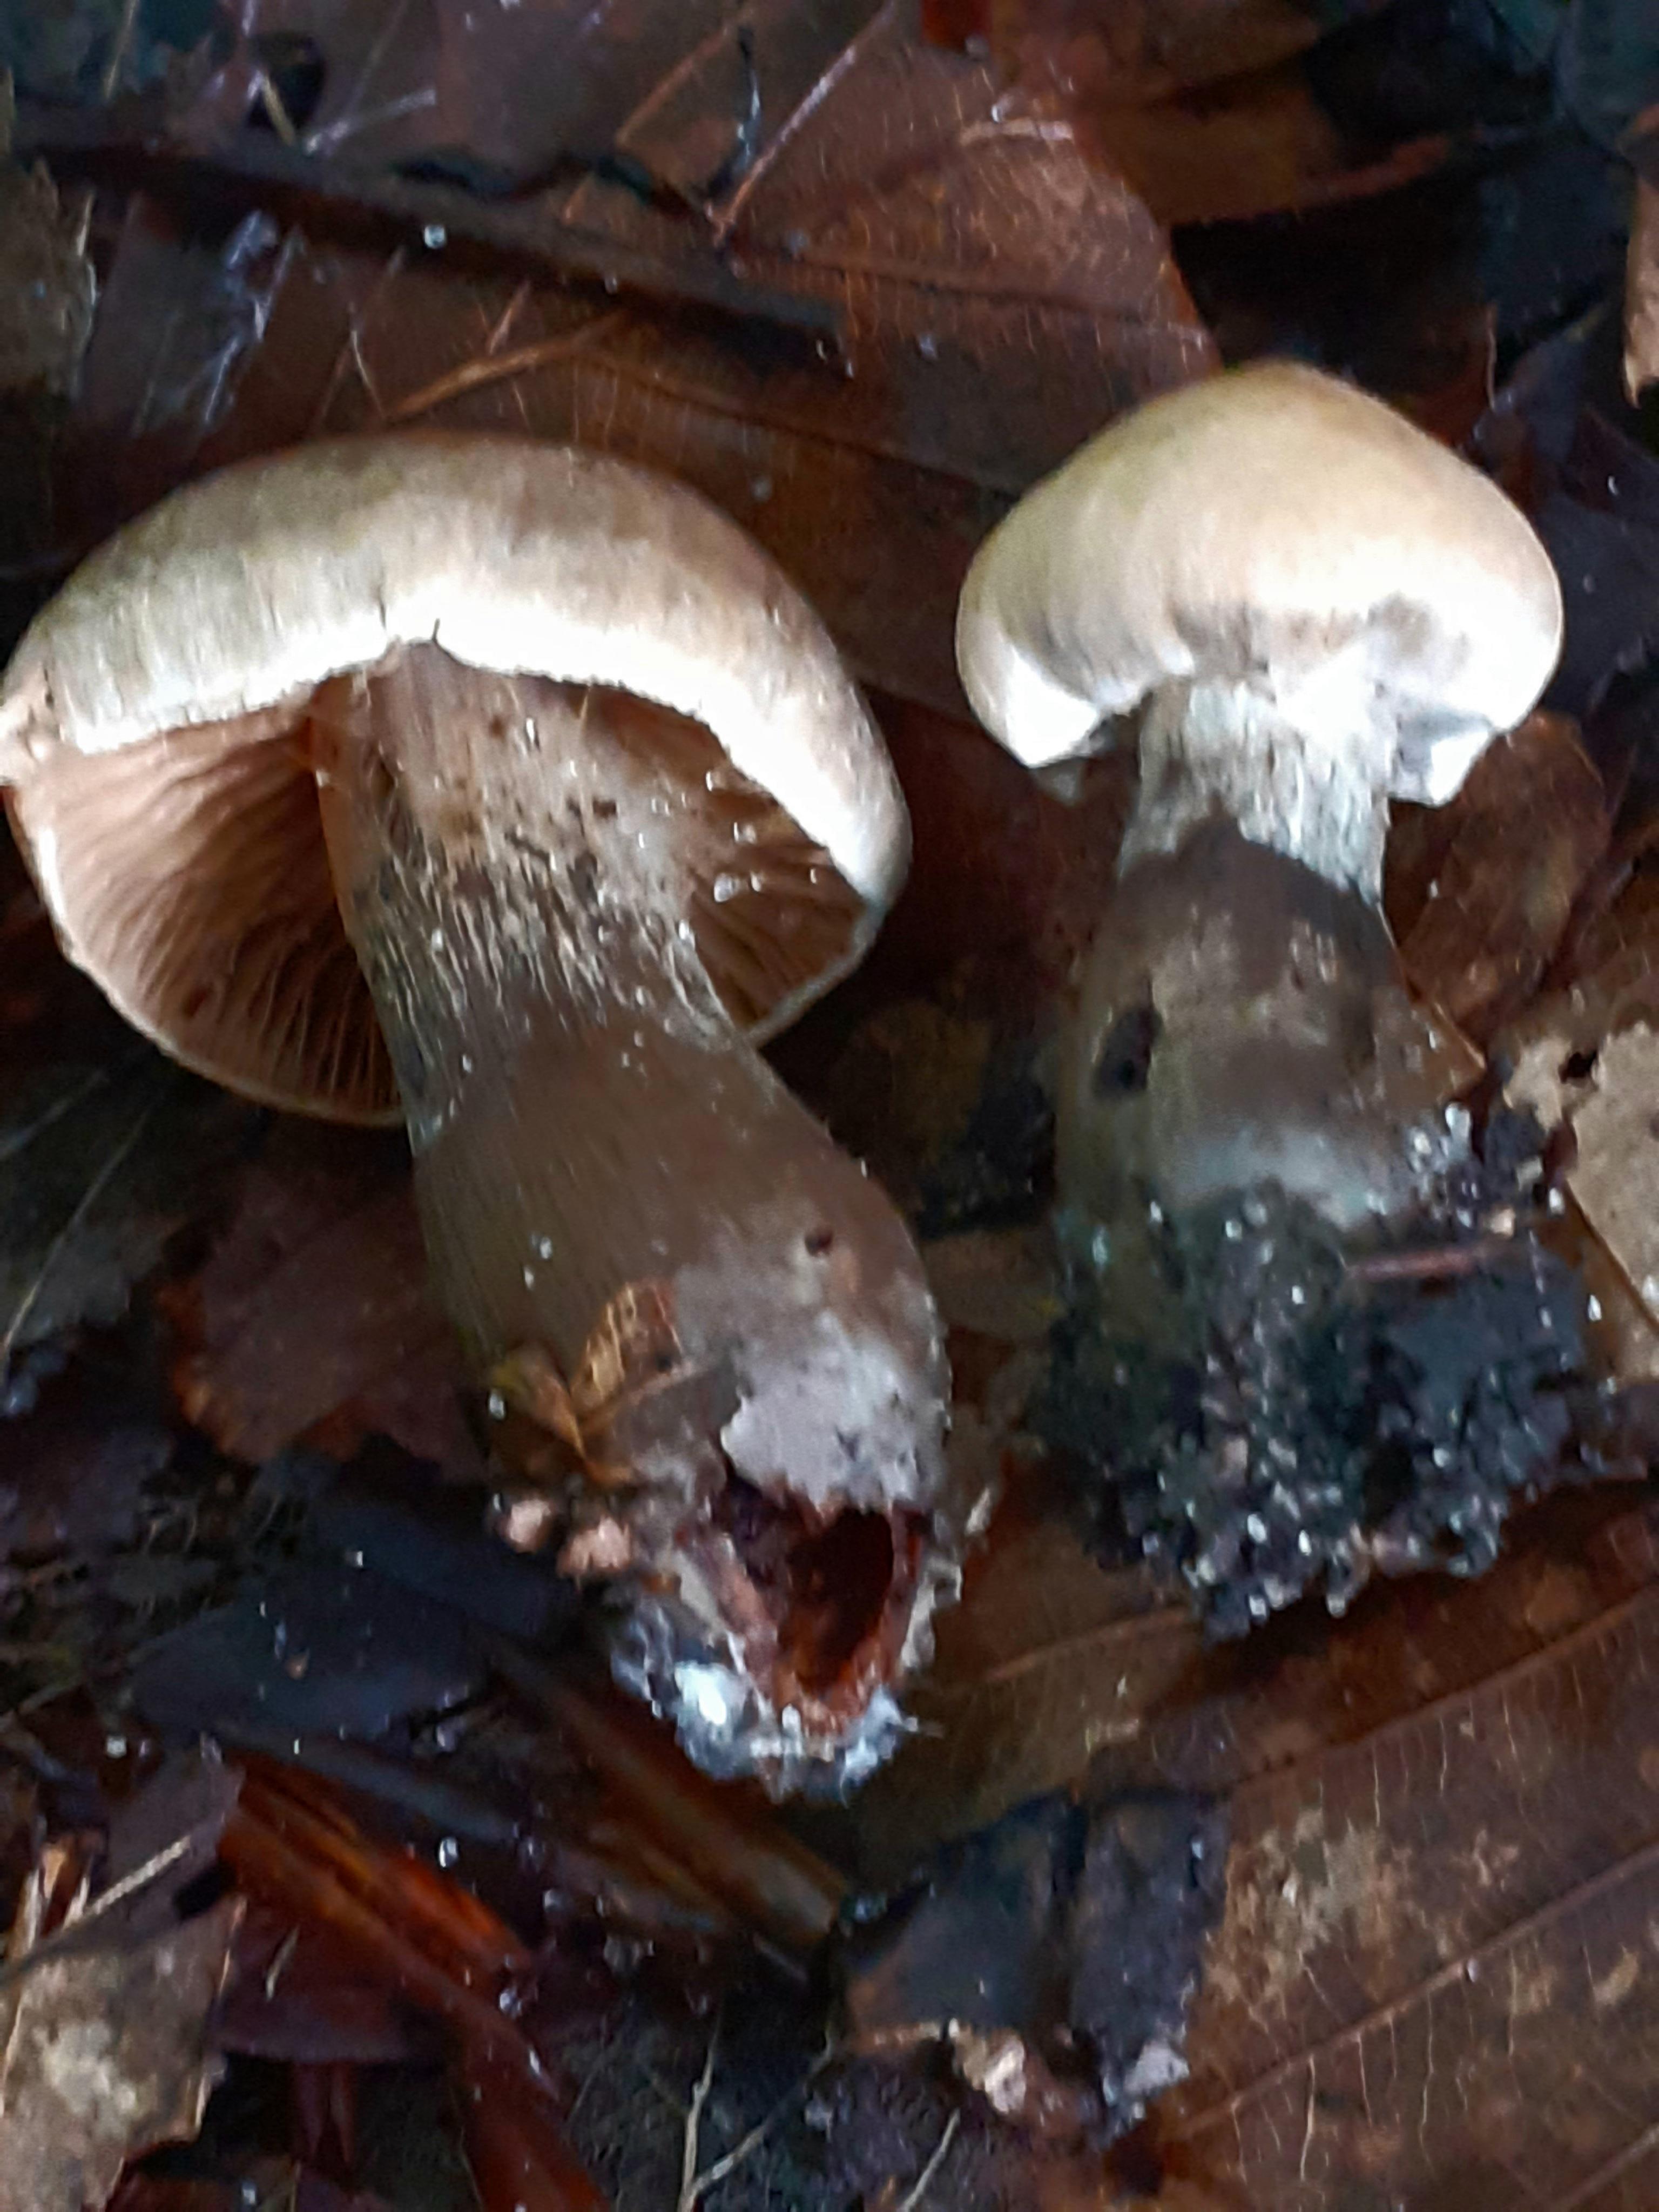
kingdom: Fungi
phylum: Basidiomycota
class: Agaricomycetes
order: Agaricales
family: Cortinariaceae
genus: Cortinarius
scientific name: Cortinarius
